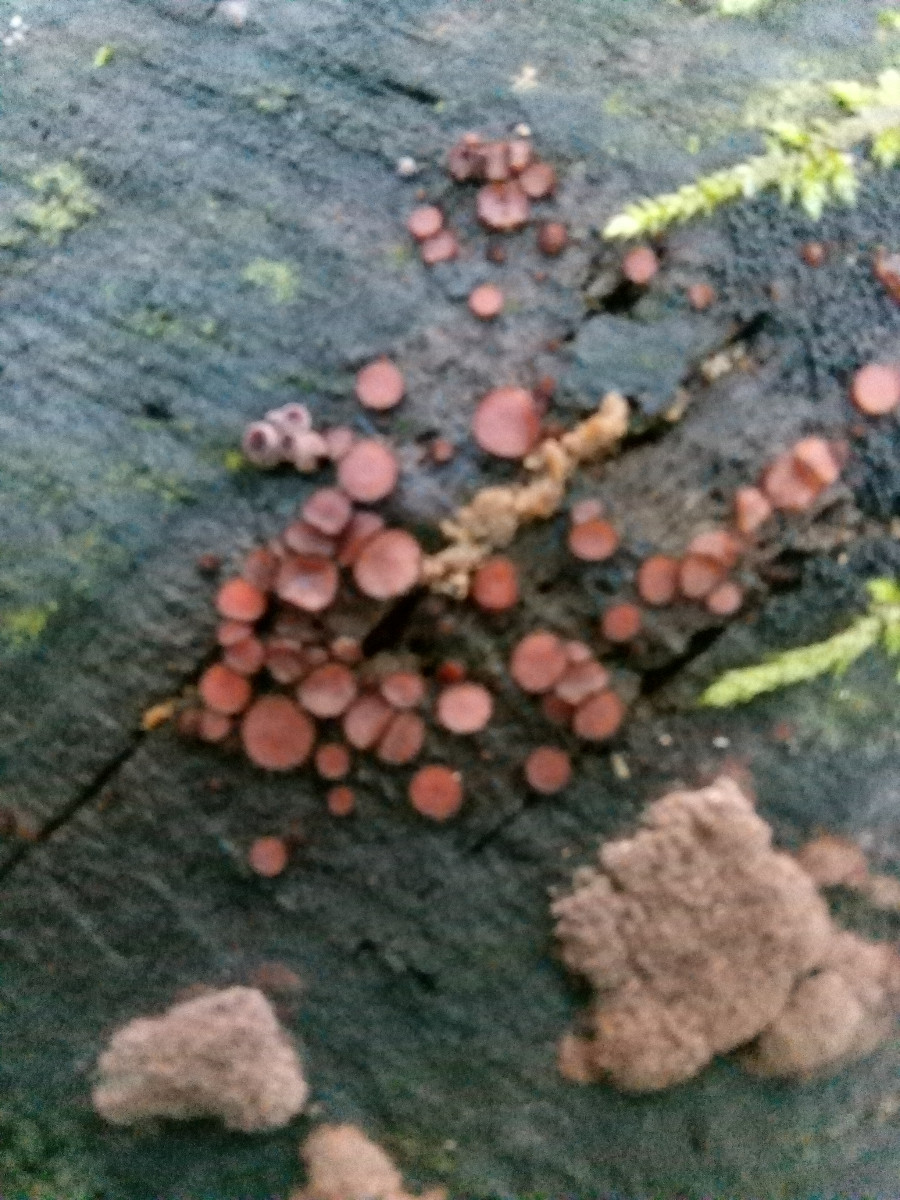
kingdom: Fungi
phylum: Ascomycota
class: Pezizomycetes
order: Pezizales
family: Pyronemataceae
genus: Scutellinia
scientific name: Scutellinia scutellata
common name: frynset skjoldbæger
